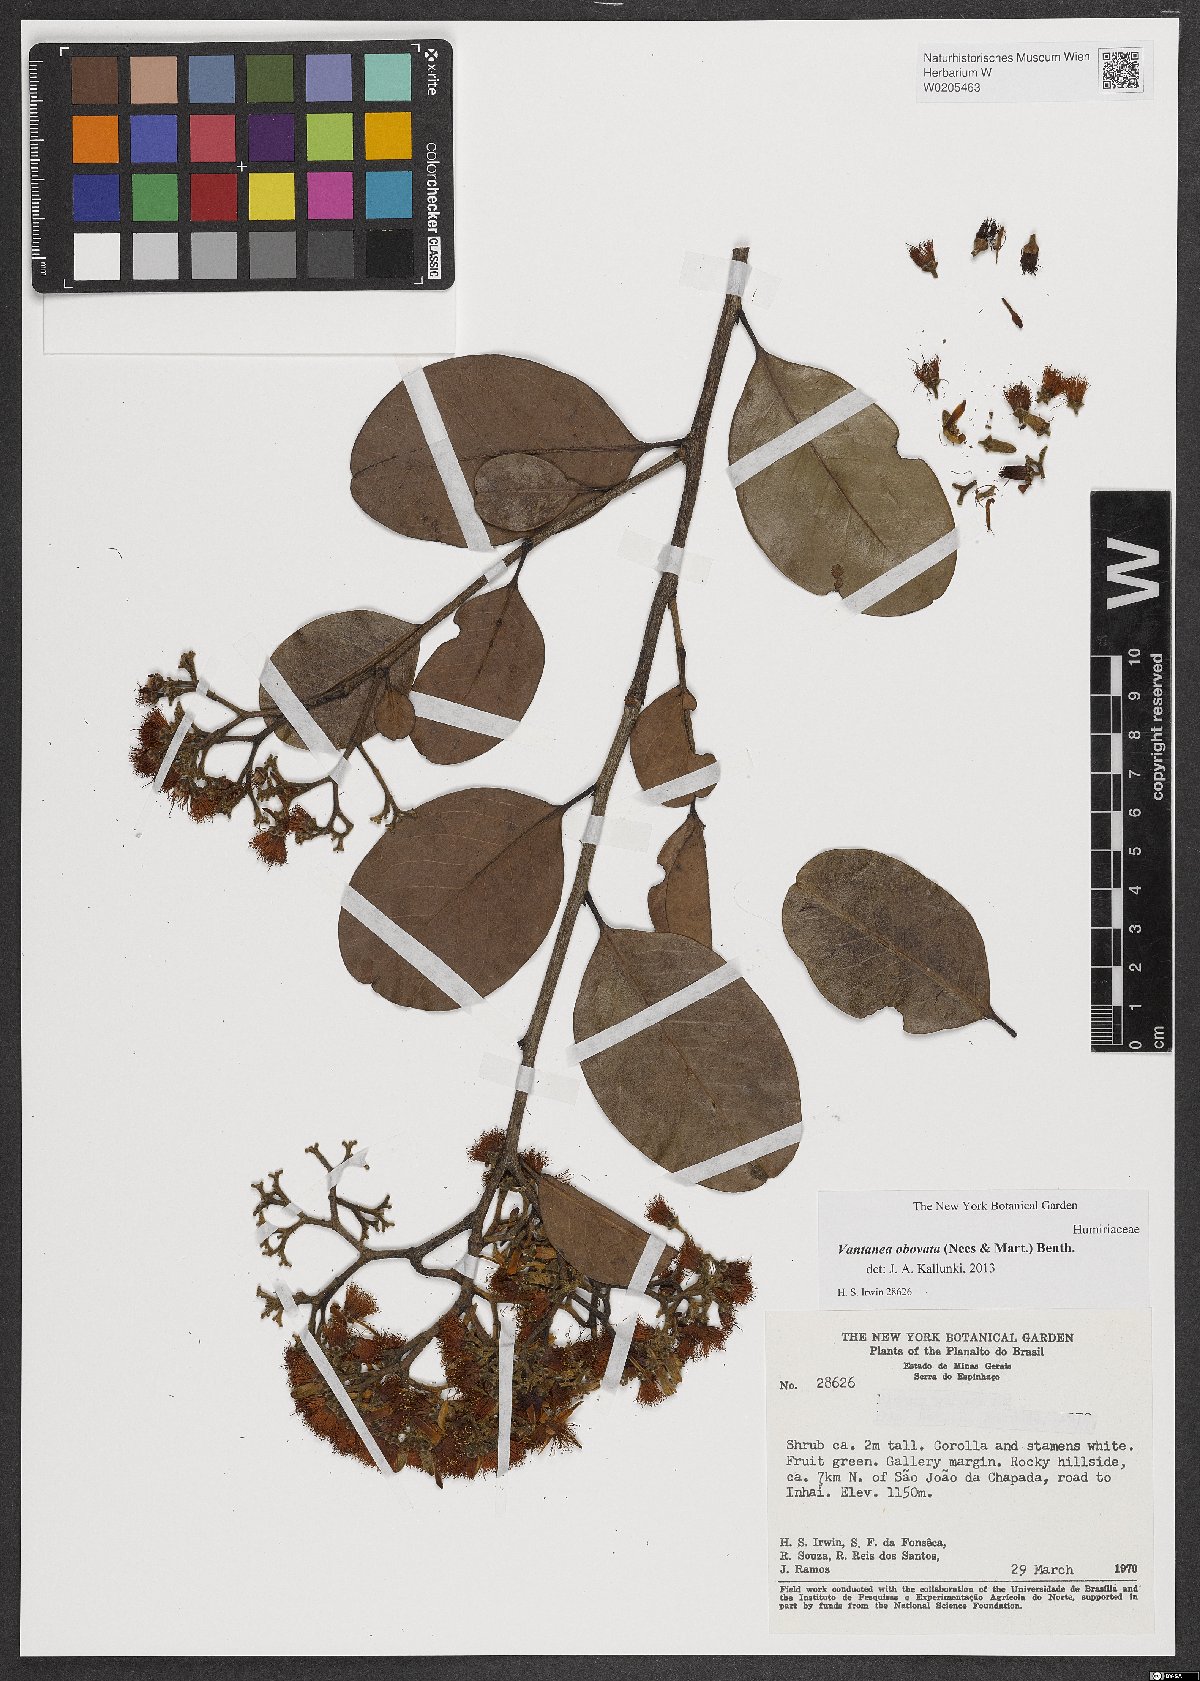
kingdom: Plantae
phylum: Tracheophyta
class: Magnoliopsida
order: Malpighiales
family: Humiriaceae
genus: Vantanea
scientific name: Vantanea obovata
